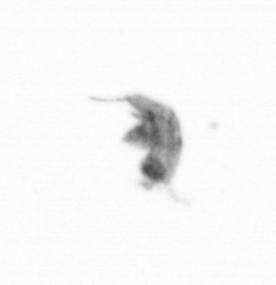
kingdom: Animalia
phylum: Arthropoda
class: Copepoda
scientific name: Copepoda
